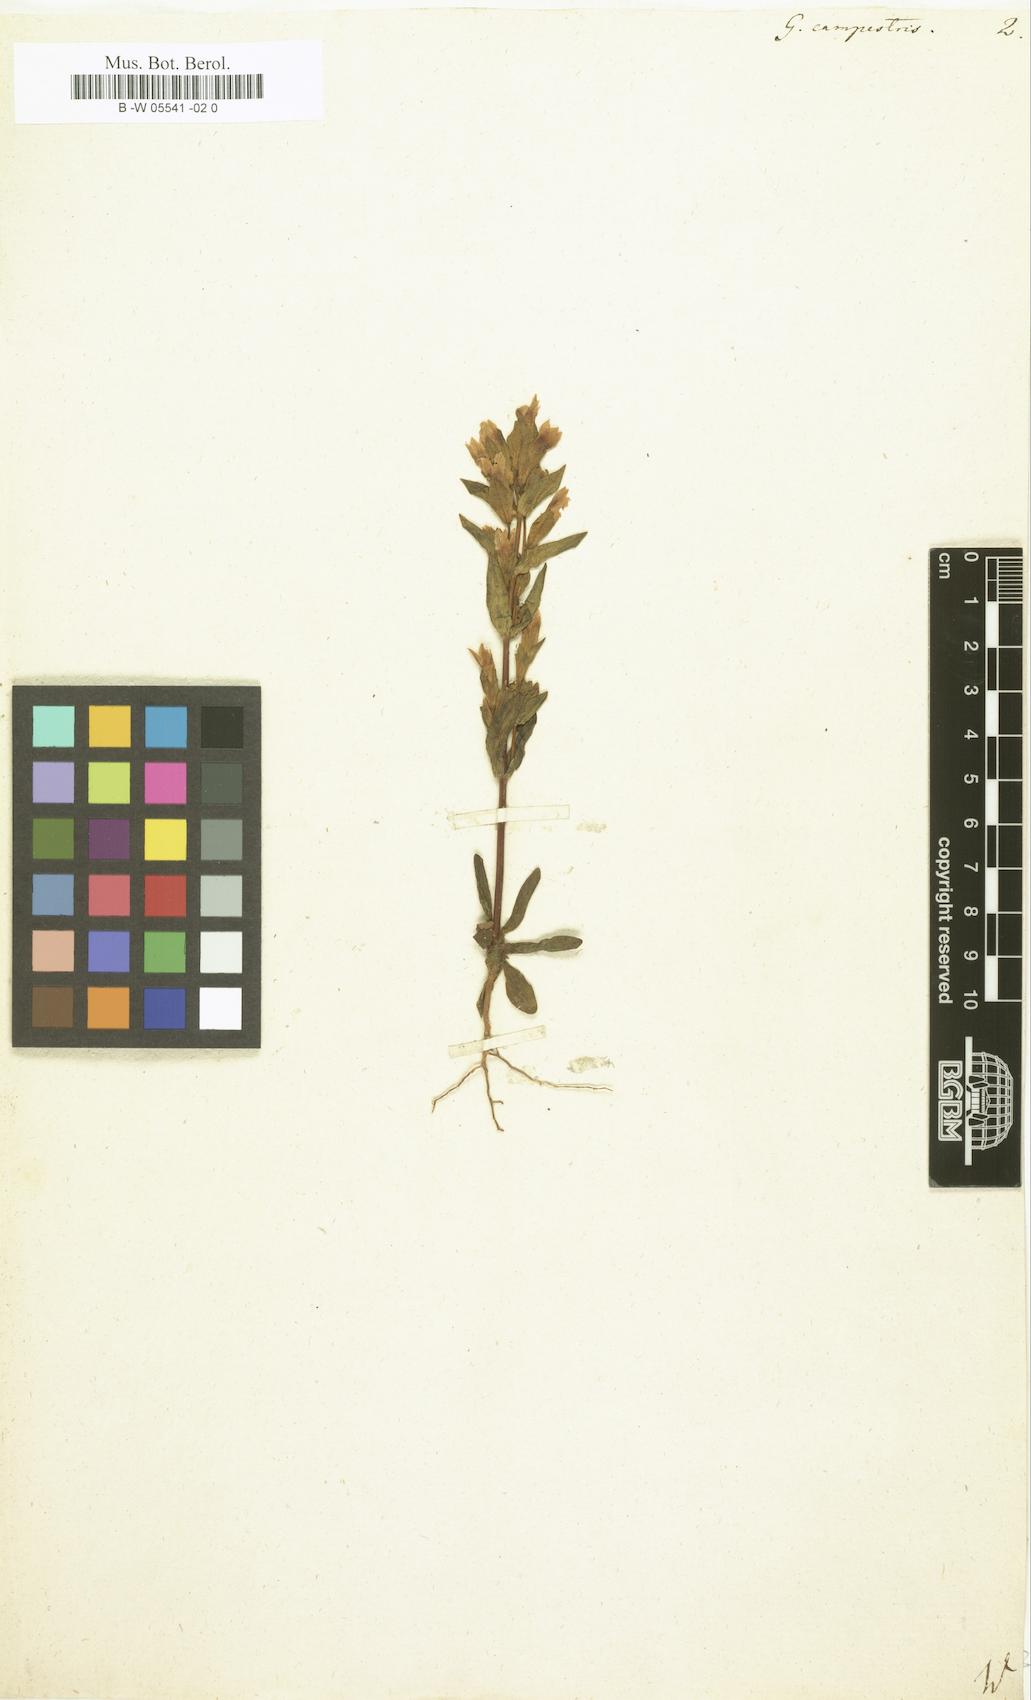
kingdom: Plantae
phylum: Tracheophyta
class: Magnoliopsida
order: Gentianales
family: Gentianaceae
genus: Gentianella
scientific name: Gentianella
